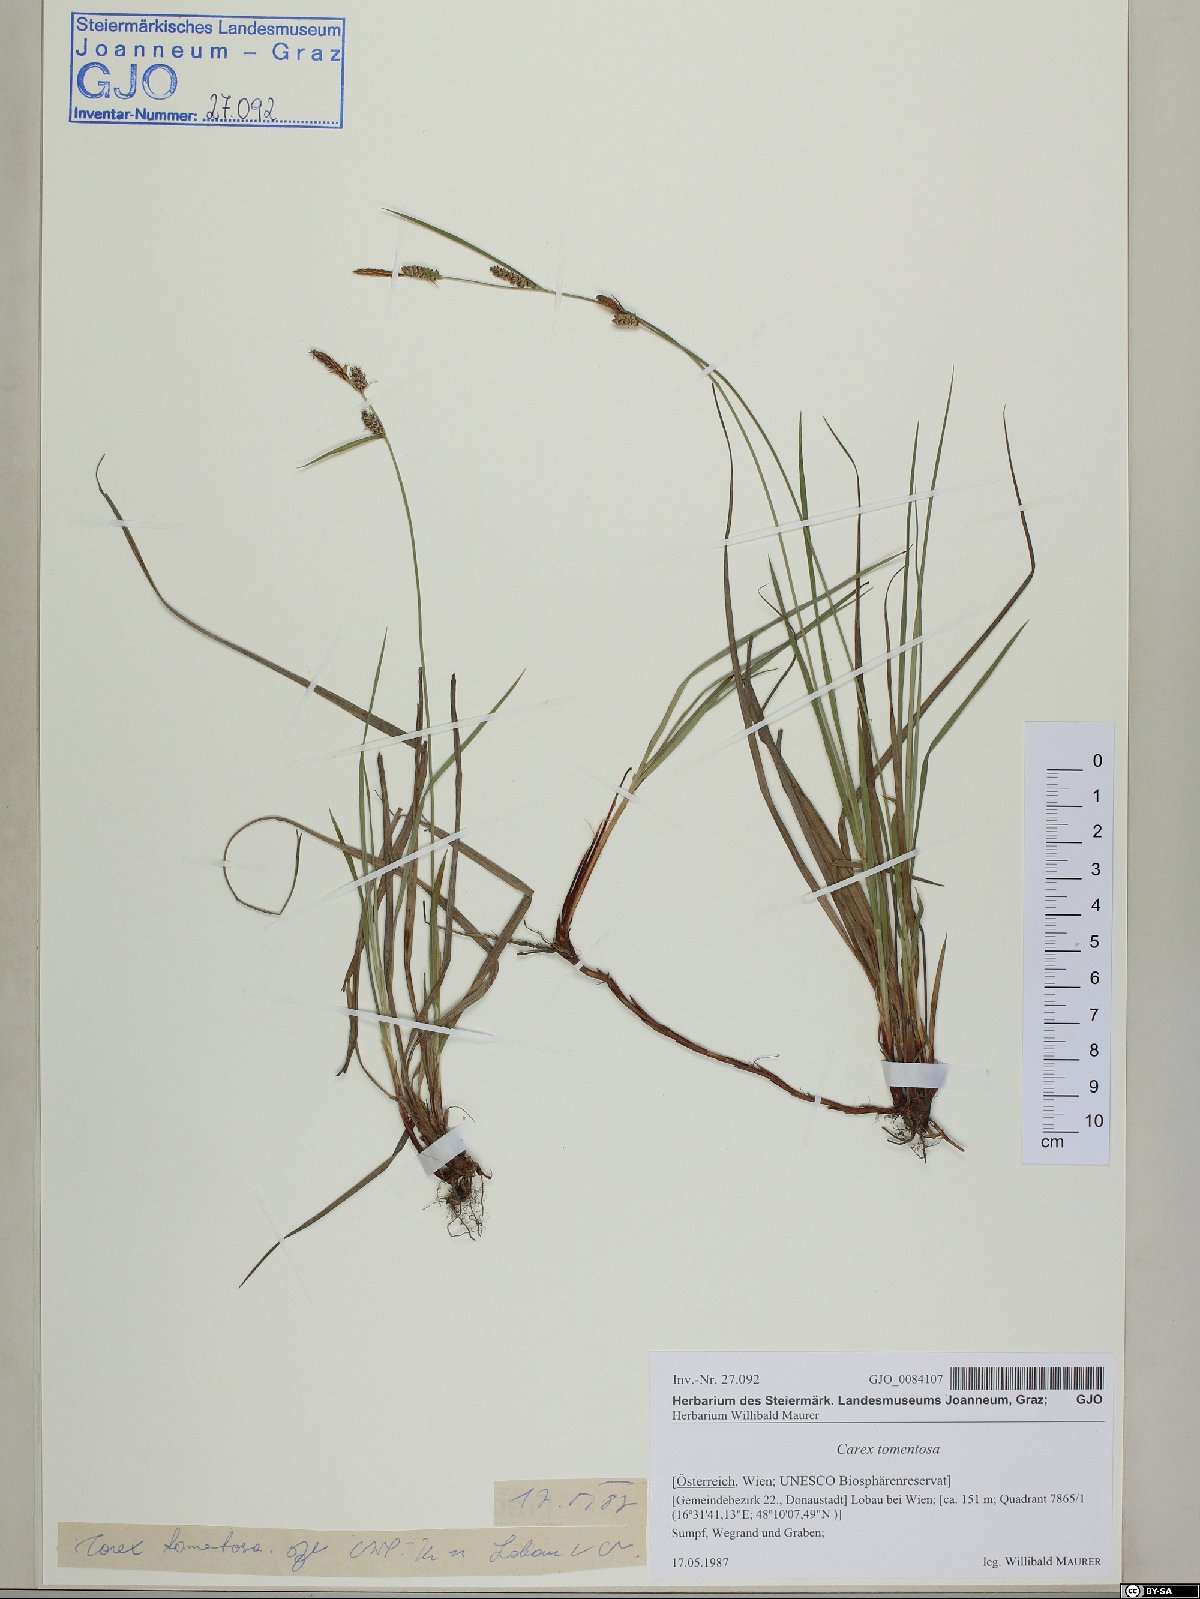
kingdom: Plantae
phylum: Tracheophyta
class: Liliopsida
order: Poales
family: Cyperaceae
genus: Carex
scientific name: Carex tomentosa
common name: Downy-fruited sedge
